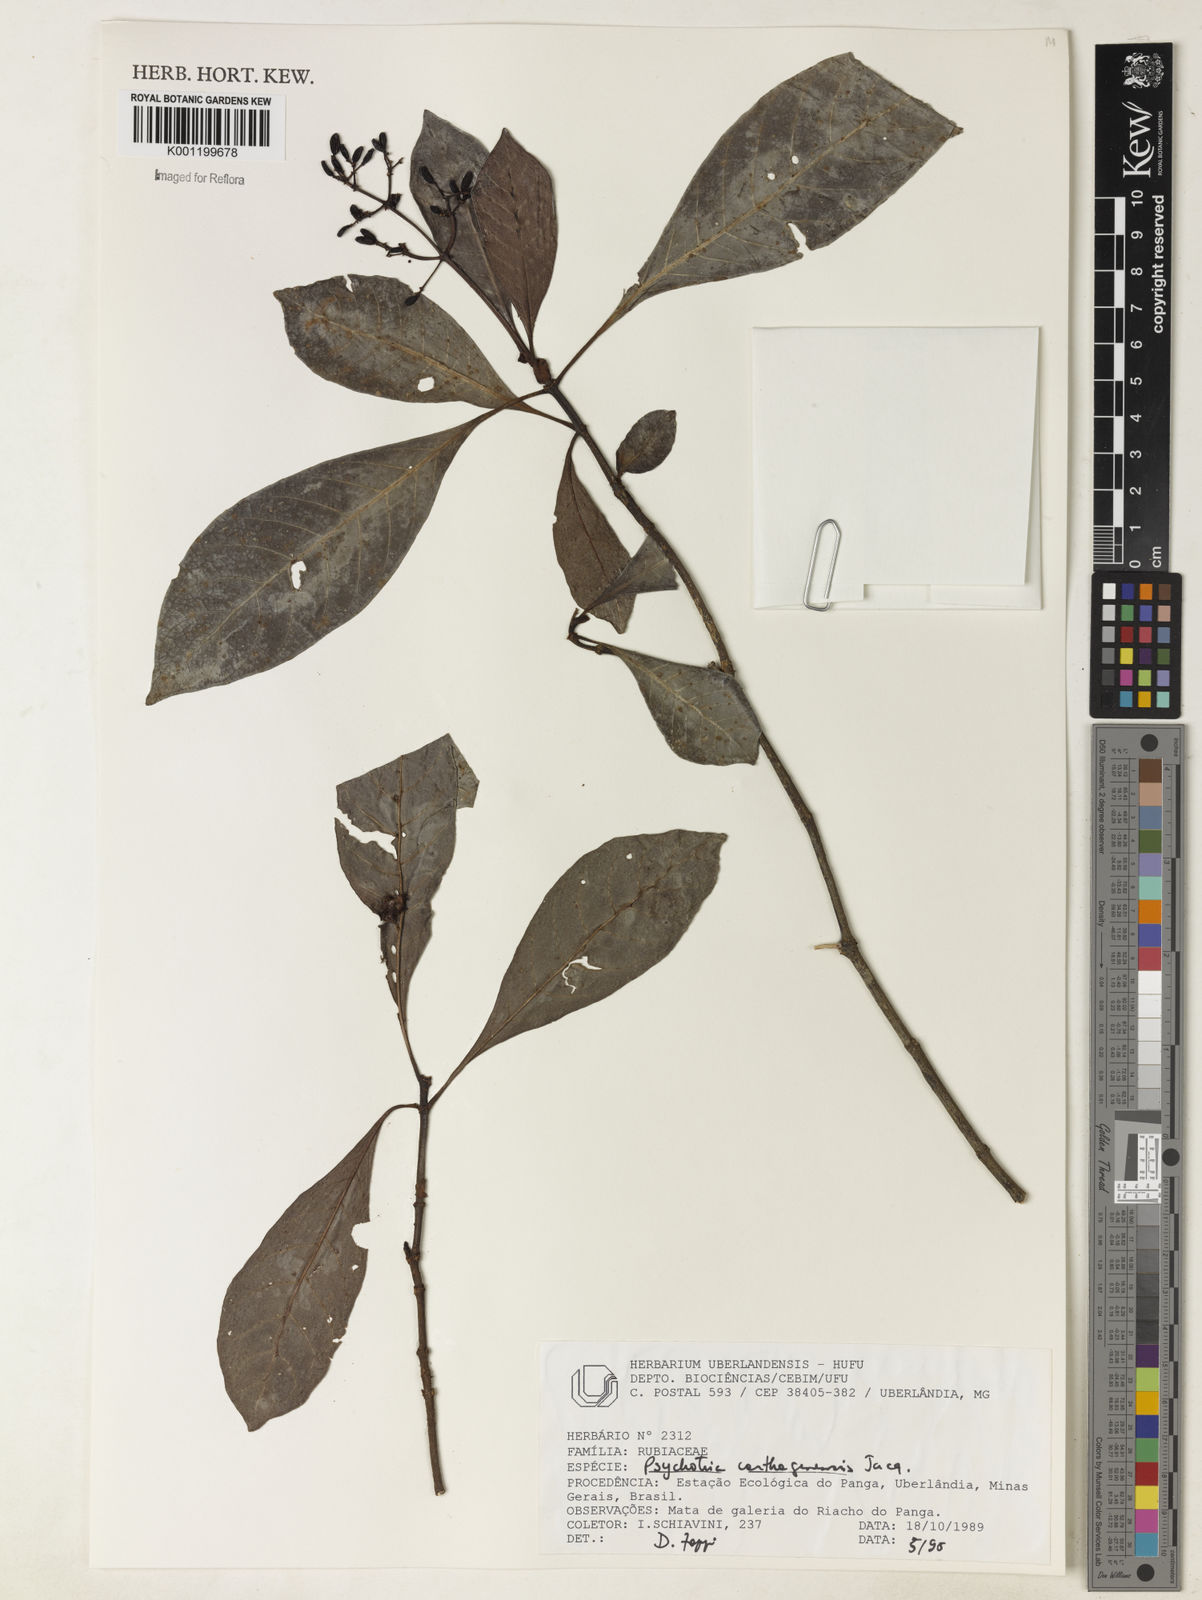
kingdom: Plantae
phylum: Tracheophyta
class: Magnoliopsida
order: Gentianales
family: Rubiaceae
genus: Psychotria
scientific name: Psychotria carthagenensis
